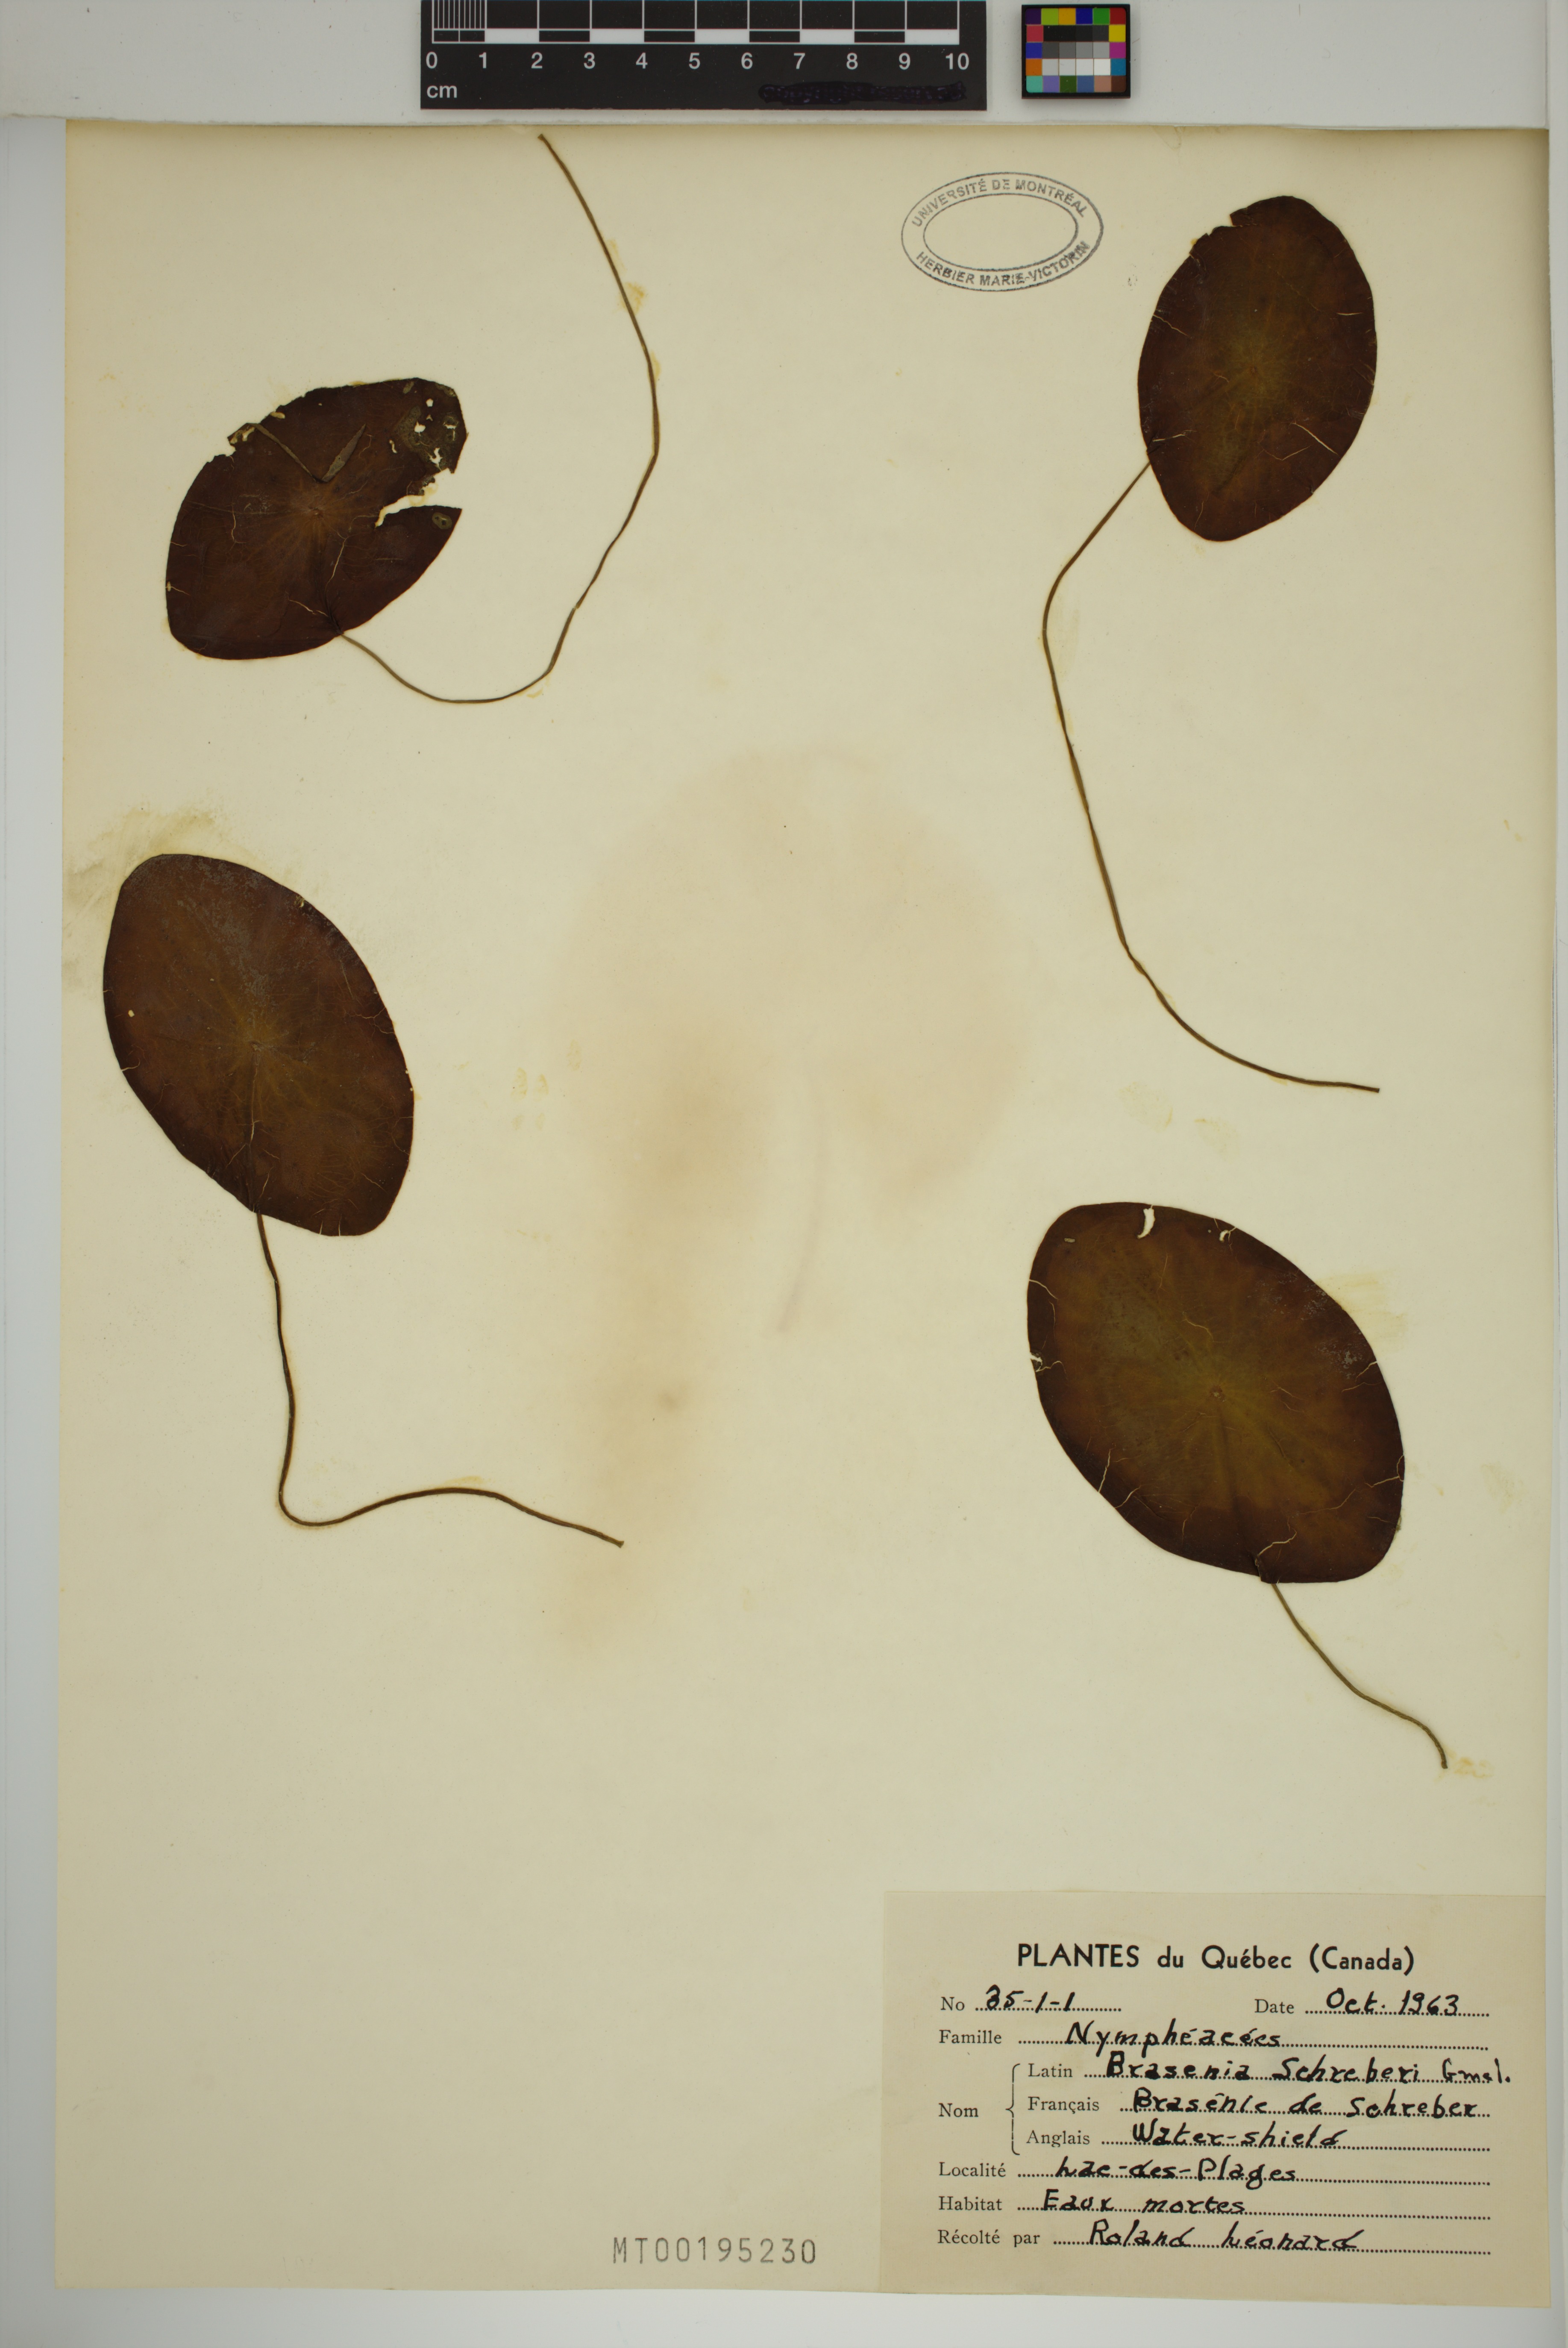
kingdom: Plantae
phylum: Tracheophyta
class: Magnoliopsida
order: Nymphaeales
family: Cabombaceae
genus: Brasenia
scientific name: Brasenia schreberi
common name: Water-shield
